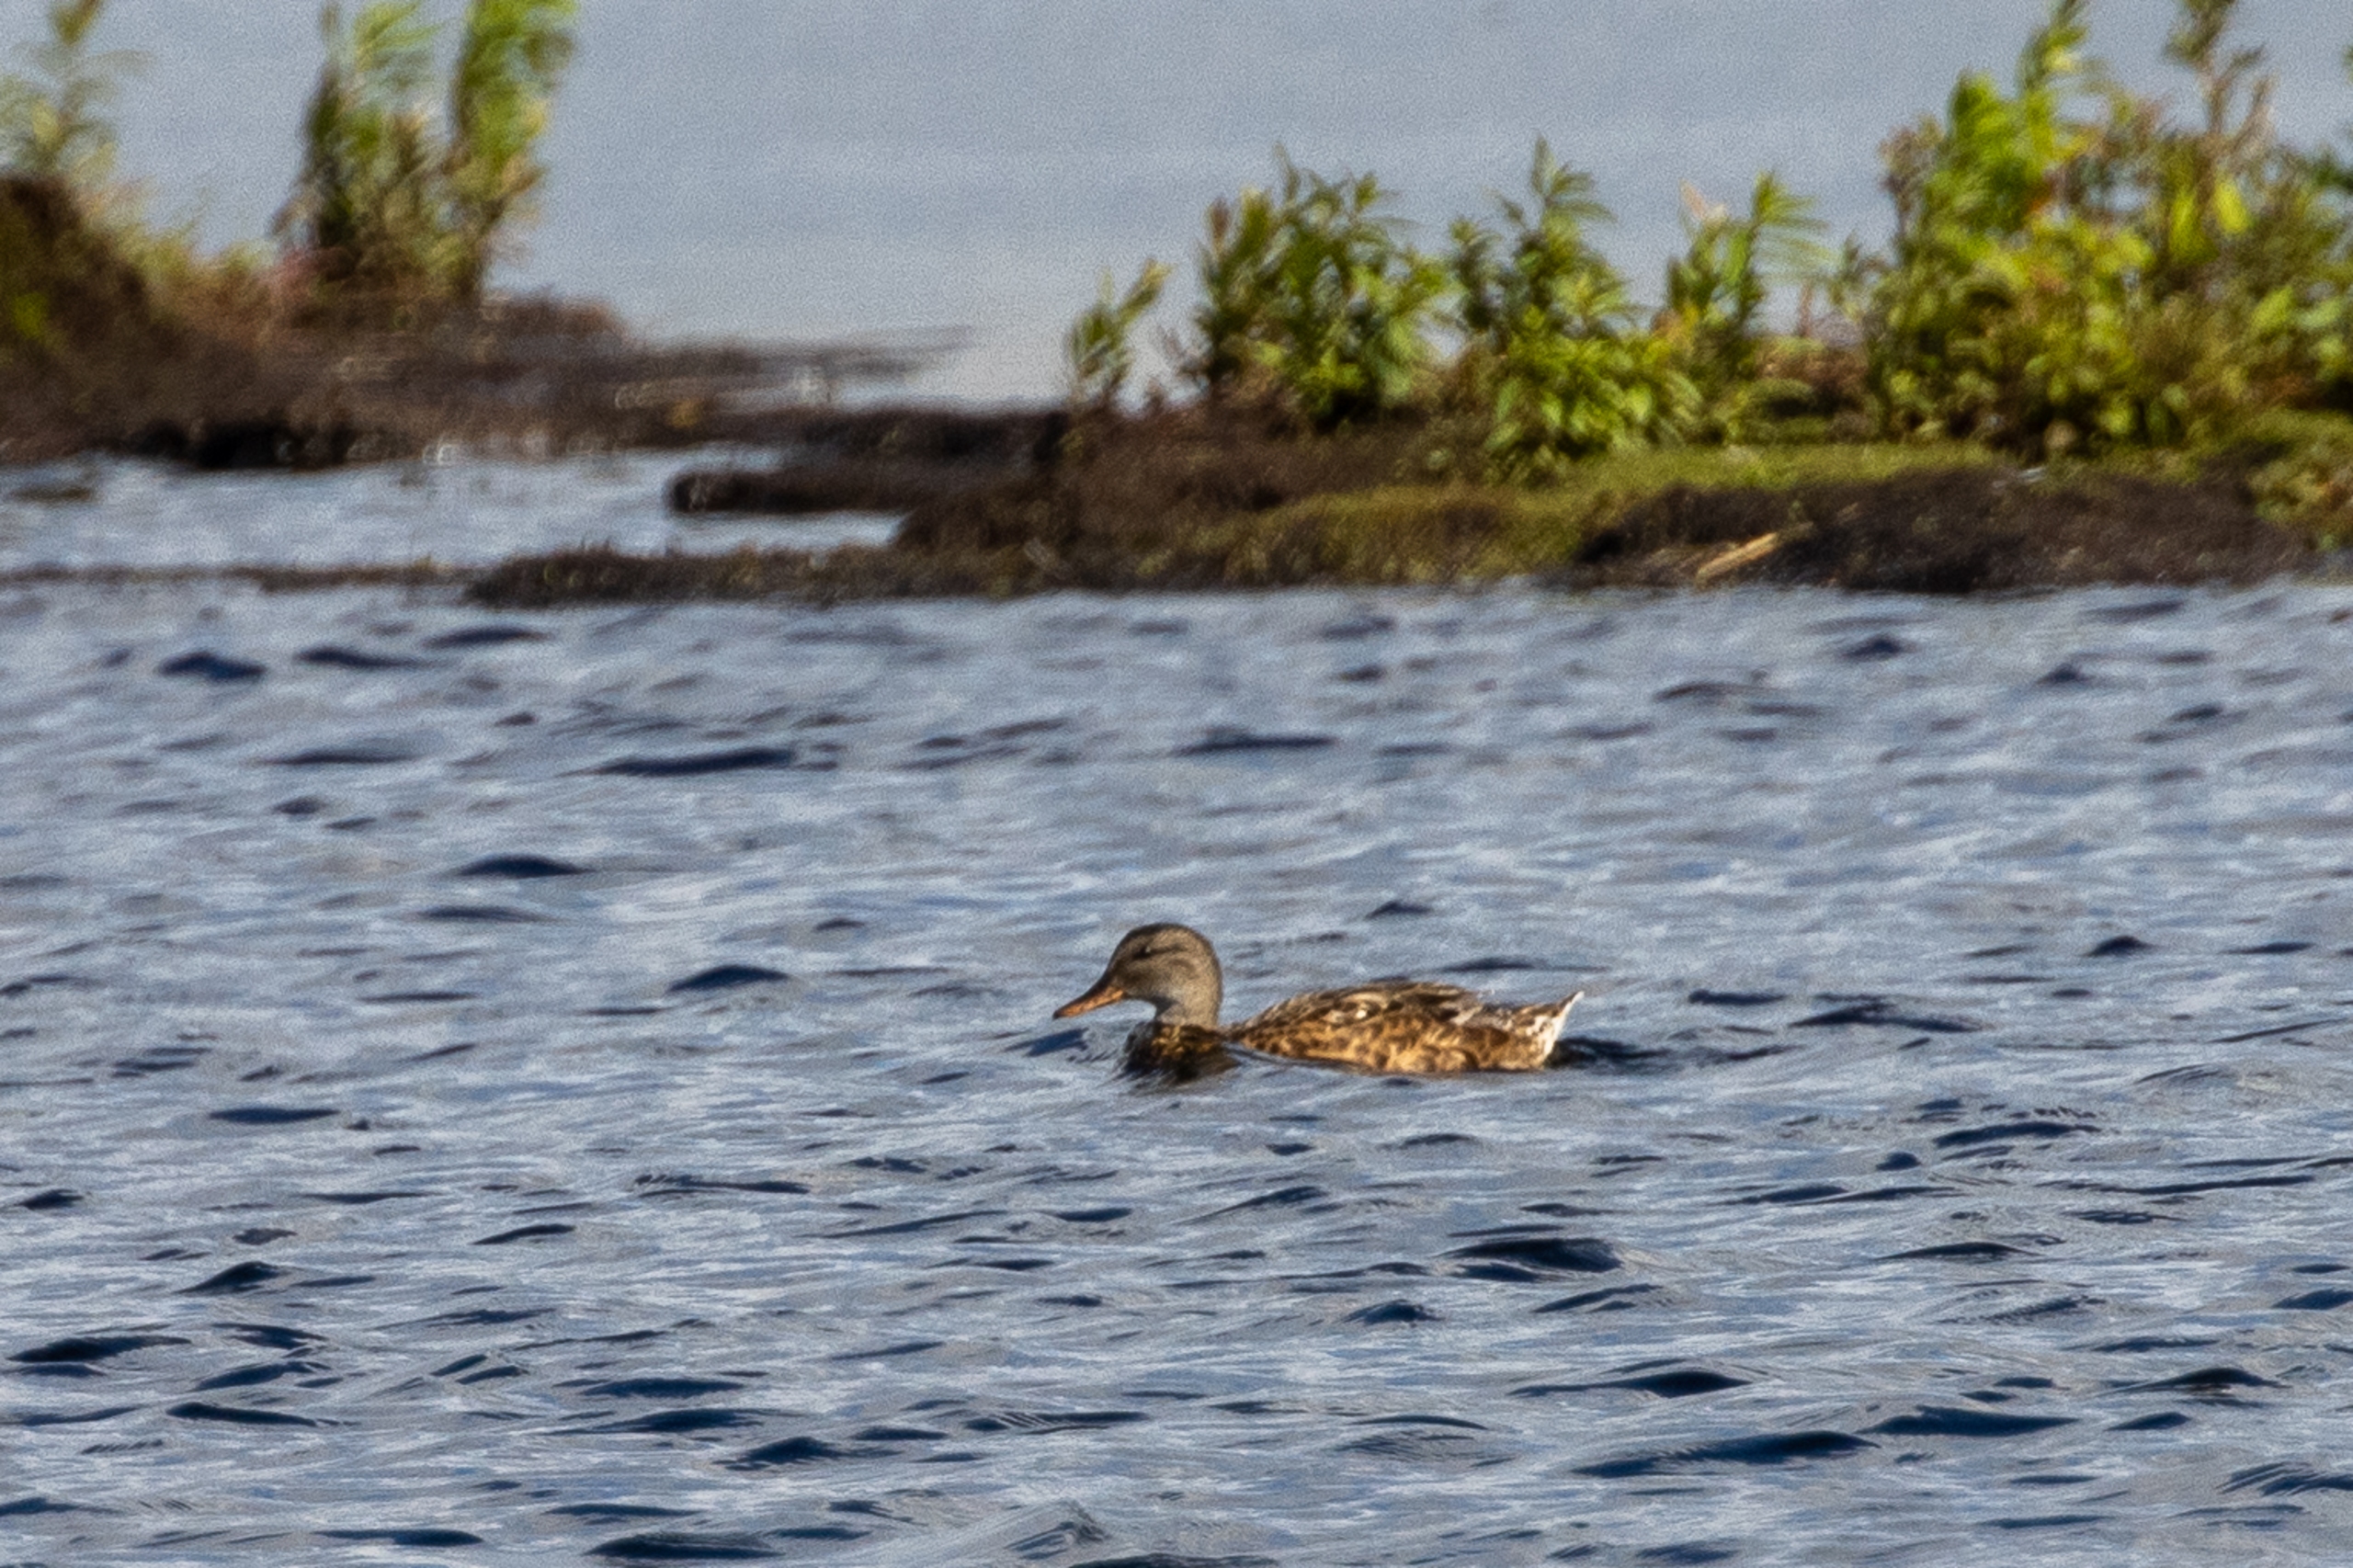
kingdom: Animalia
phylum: Chordata
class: Aves
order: Anseriformes
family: Anatidae
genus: Mareca
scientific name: Mareca strepera
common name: Knarand
